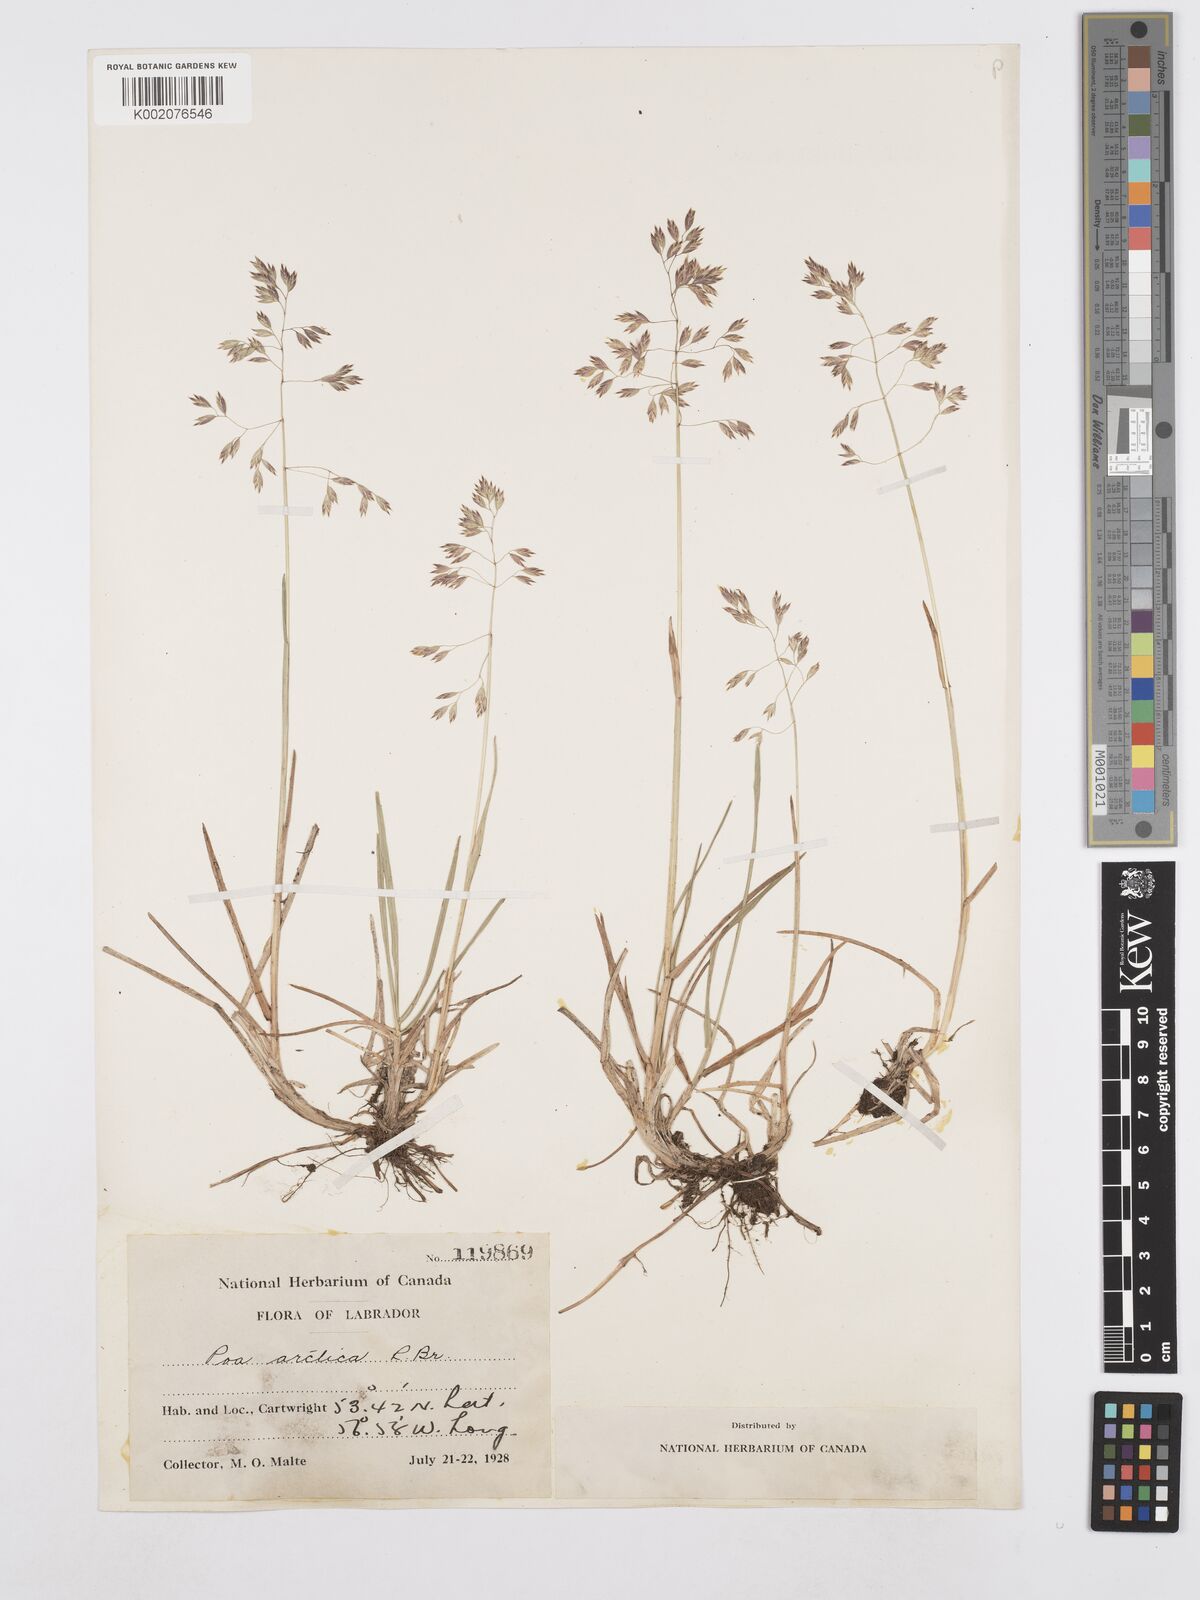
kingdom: Plantae
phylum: Tracheophyta
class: Liliopsida
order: Poales
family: Poaceae
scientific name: Poaceae
